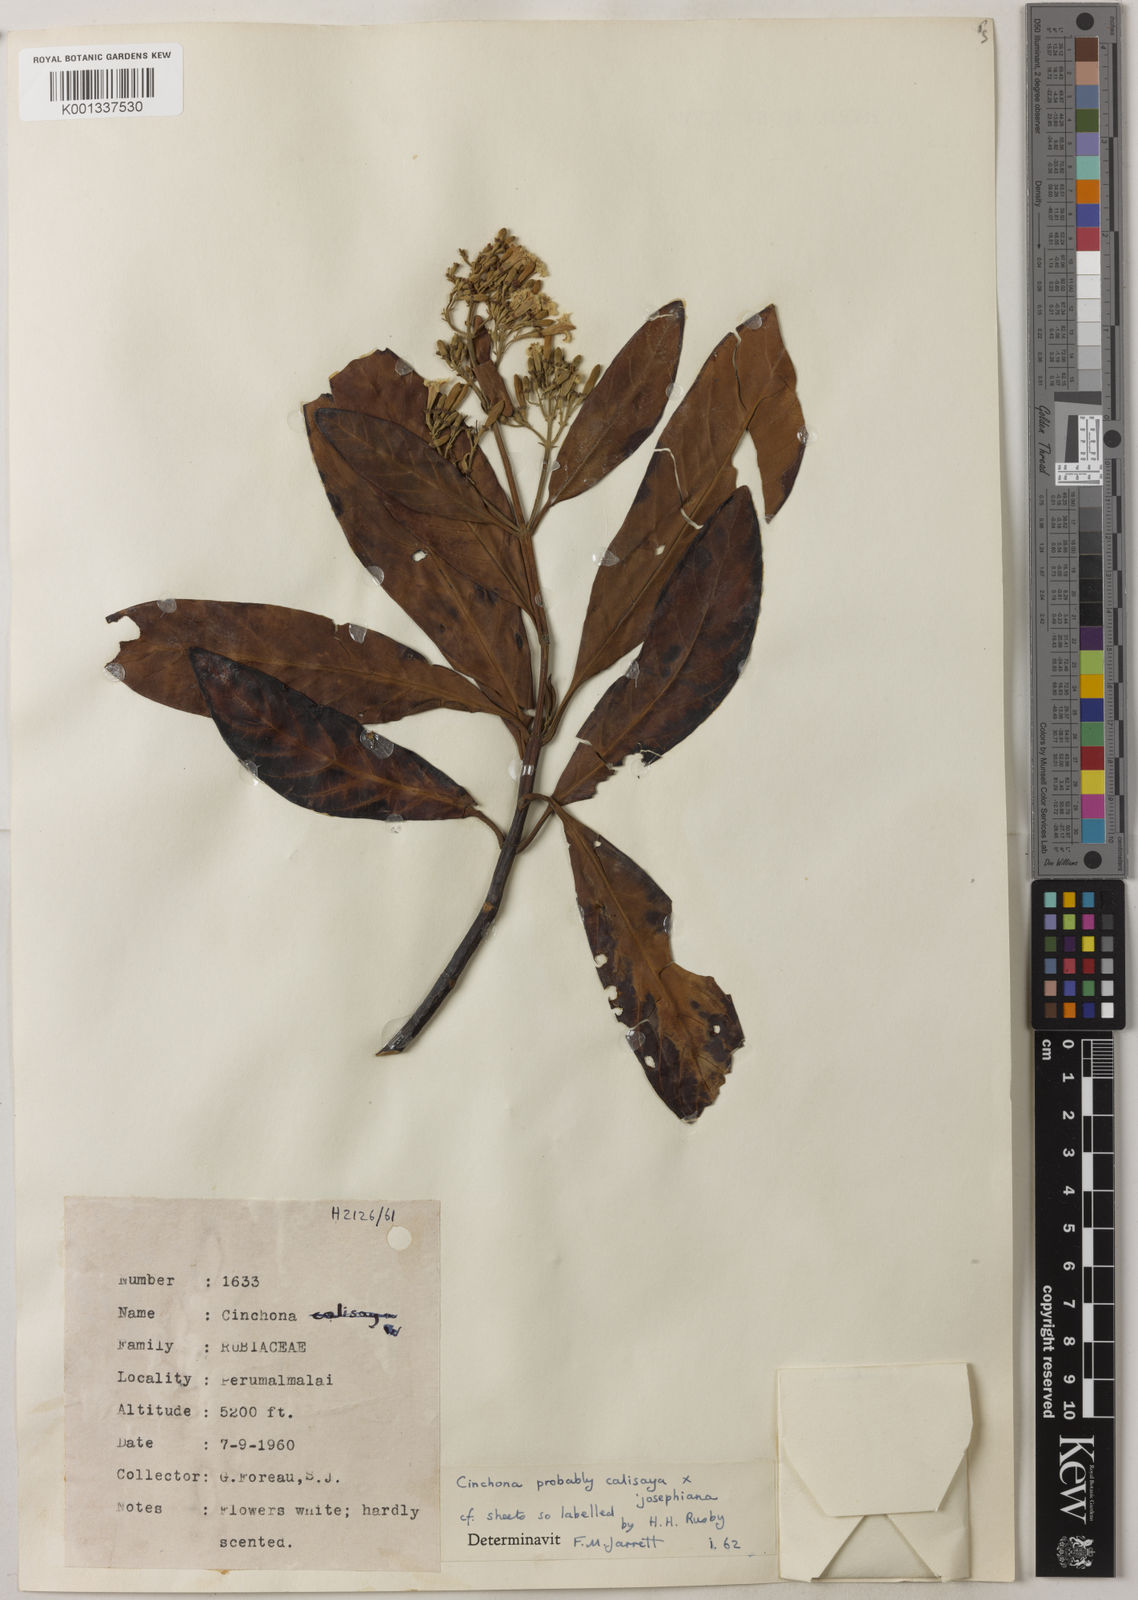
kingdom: Plantae
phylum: Tracheophyta
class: Magnoliopsida
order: Gentianales
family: Rubiaceae
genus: Cinchona
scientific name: Cinchona calisaya
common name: Ledgerbark
